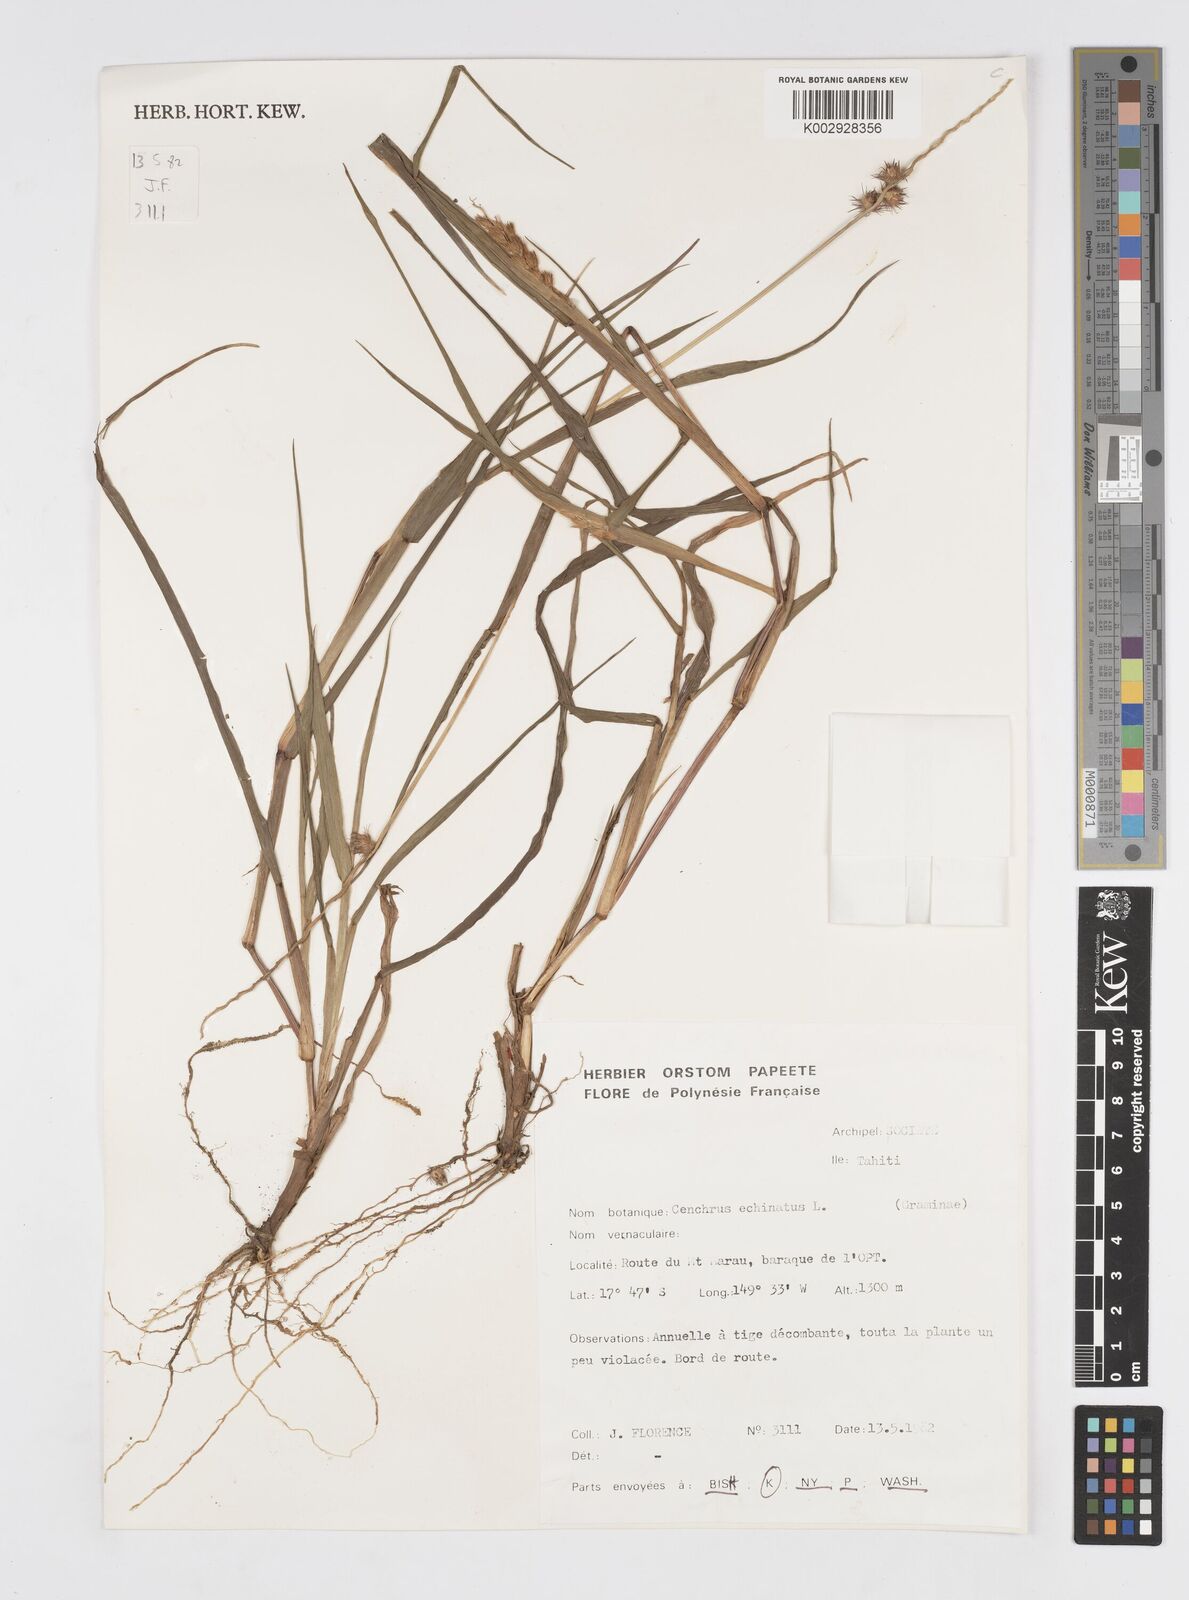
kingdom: Plantae
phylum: Tracheophyta
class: Liliopsida
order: Poales
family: Poaceae
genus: Cenchrus
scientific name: Cenchrus echinatus
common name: Southern sandbur
